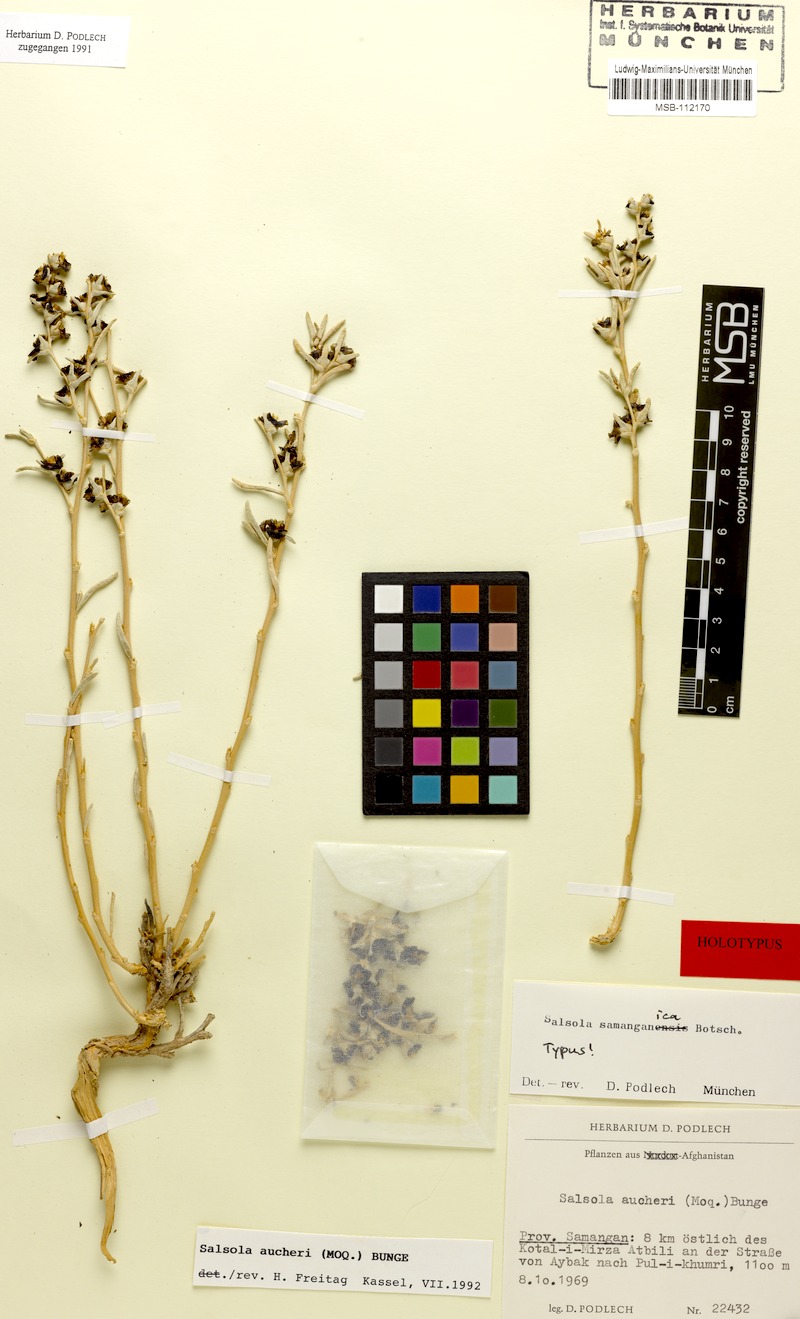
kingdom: Plantae
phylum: Tracheophyta
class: Magnoliopsida
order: Caryophyllales
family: Amaranthaceae
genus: Kaviria
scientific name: Kaviria aucheri
